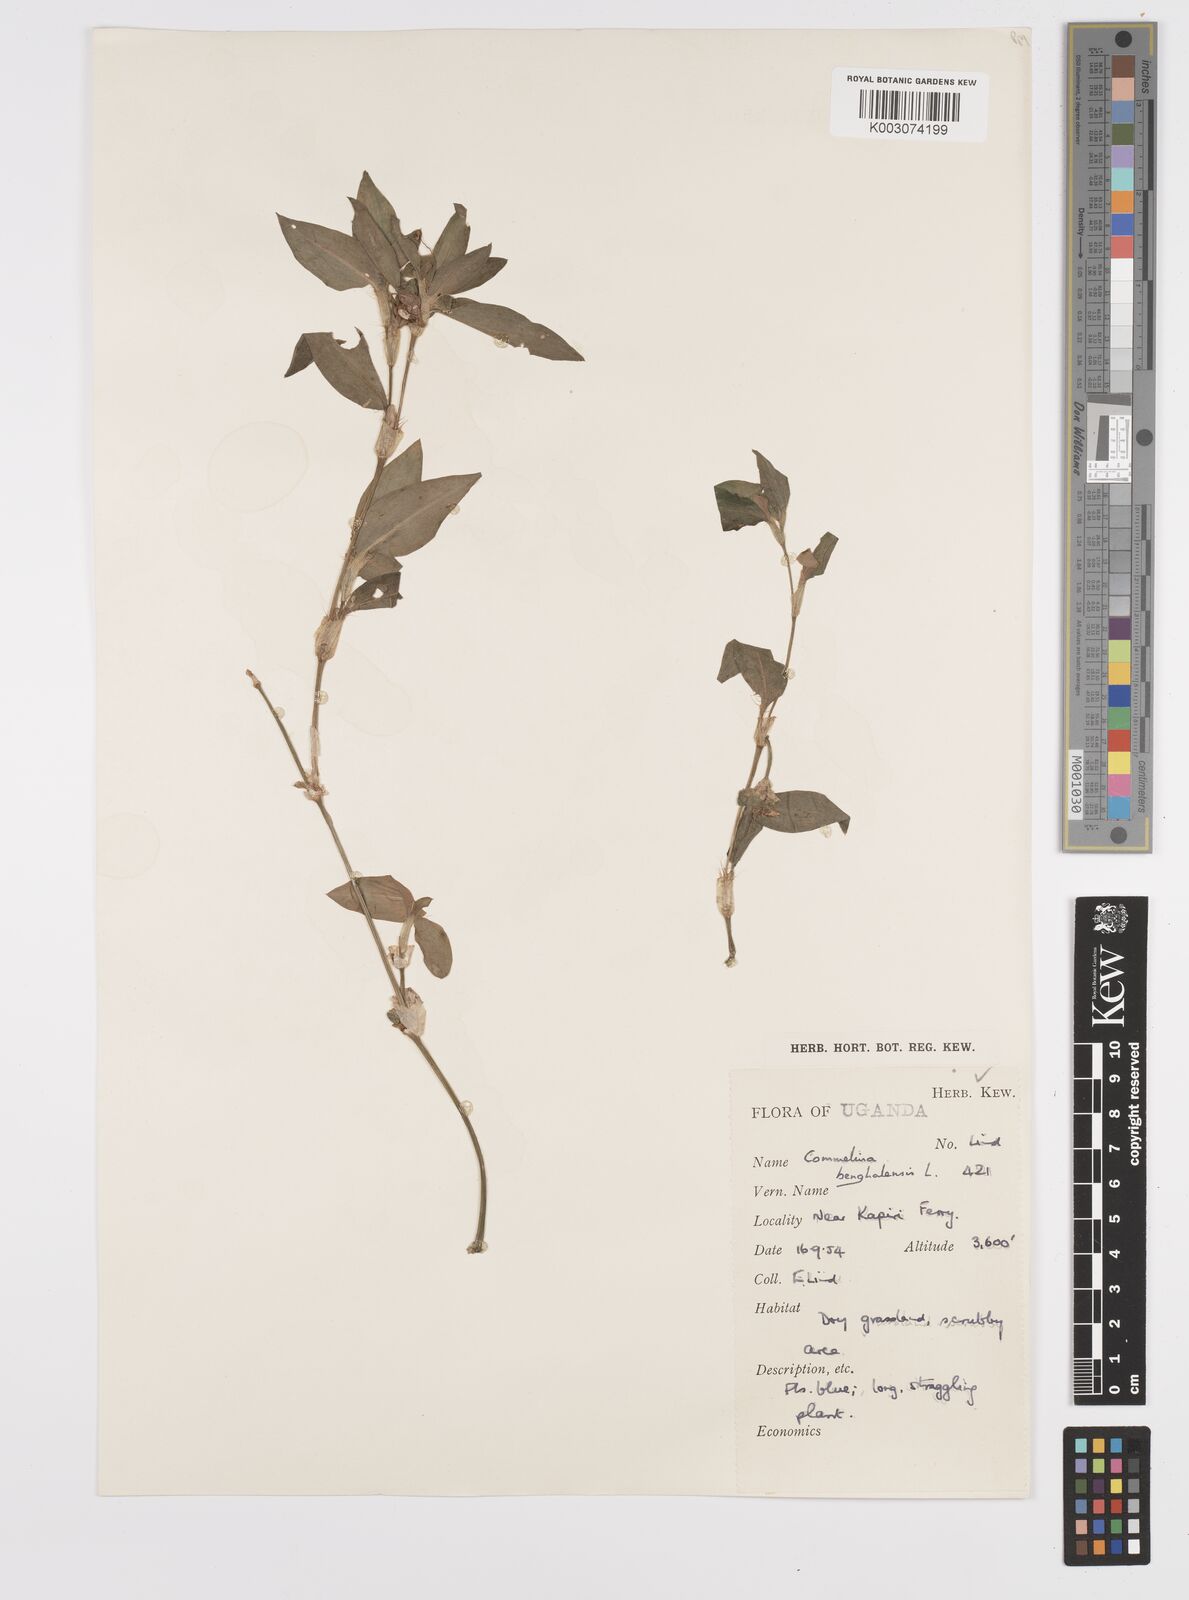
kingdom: Plantae
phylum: Tracheophyta
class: Liliopsida
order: Commelinales
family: Commelinaceae
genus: Commelina
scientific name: Commelina benghalensis
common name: Jio
